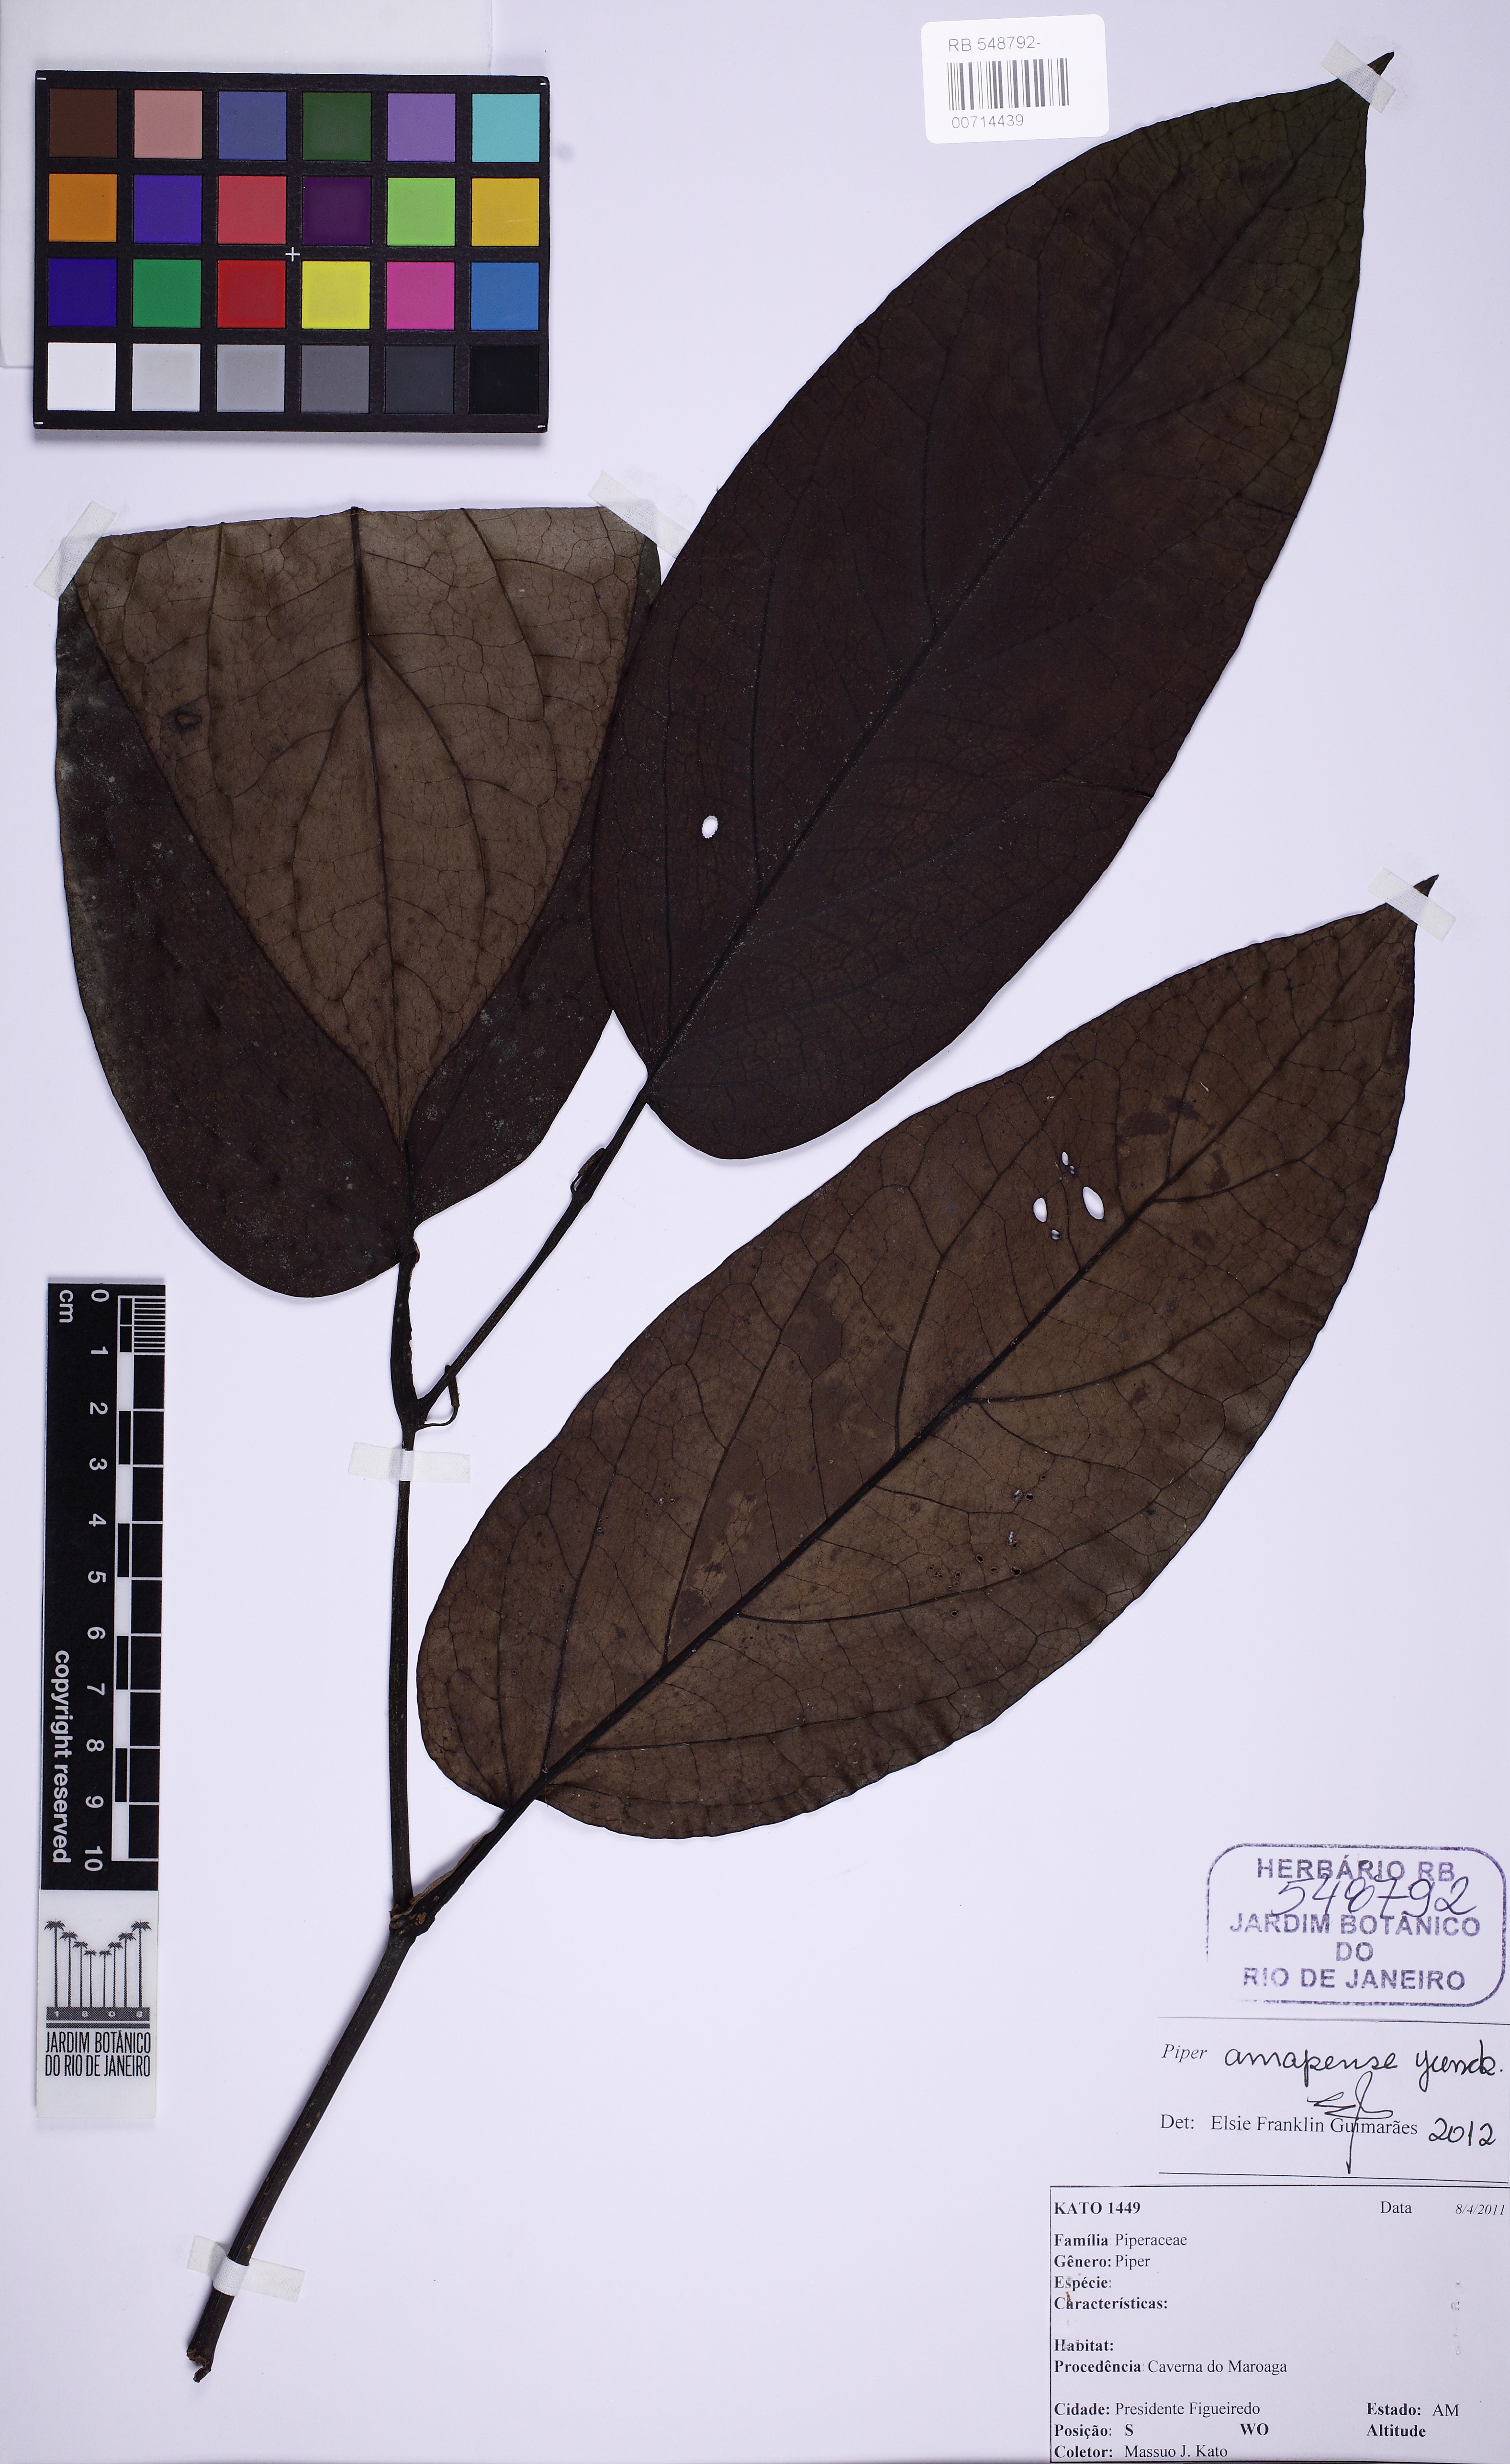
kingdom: Plantae
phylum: Tracheophyta
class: Magnoliopsida
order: Piperales
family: Piperaceae
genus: Piper
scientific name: Piper inaequale
